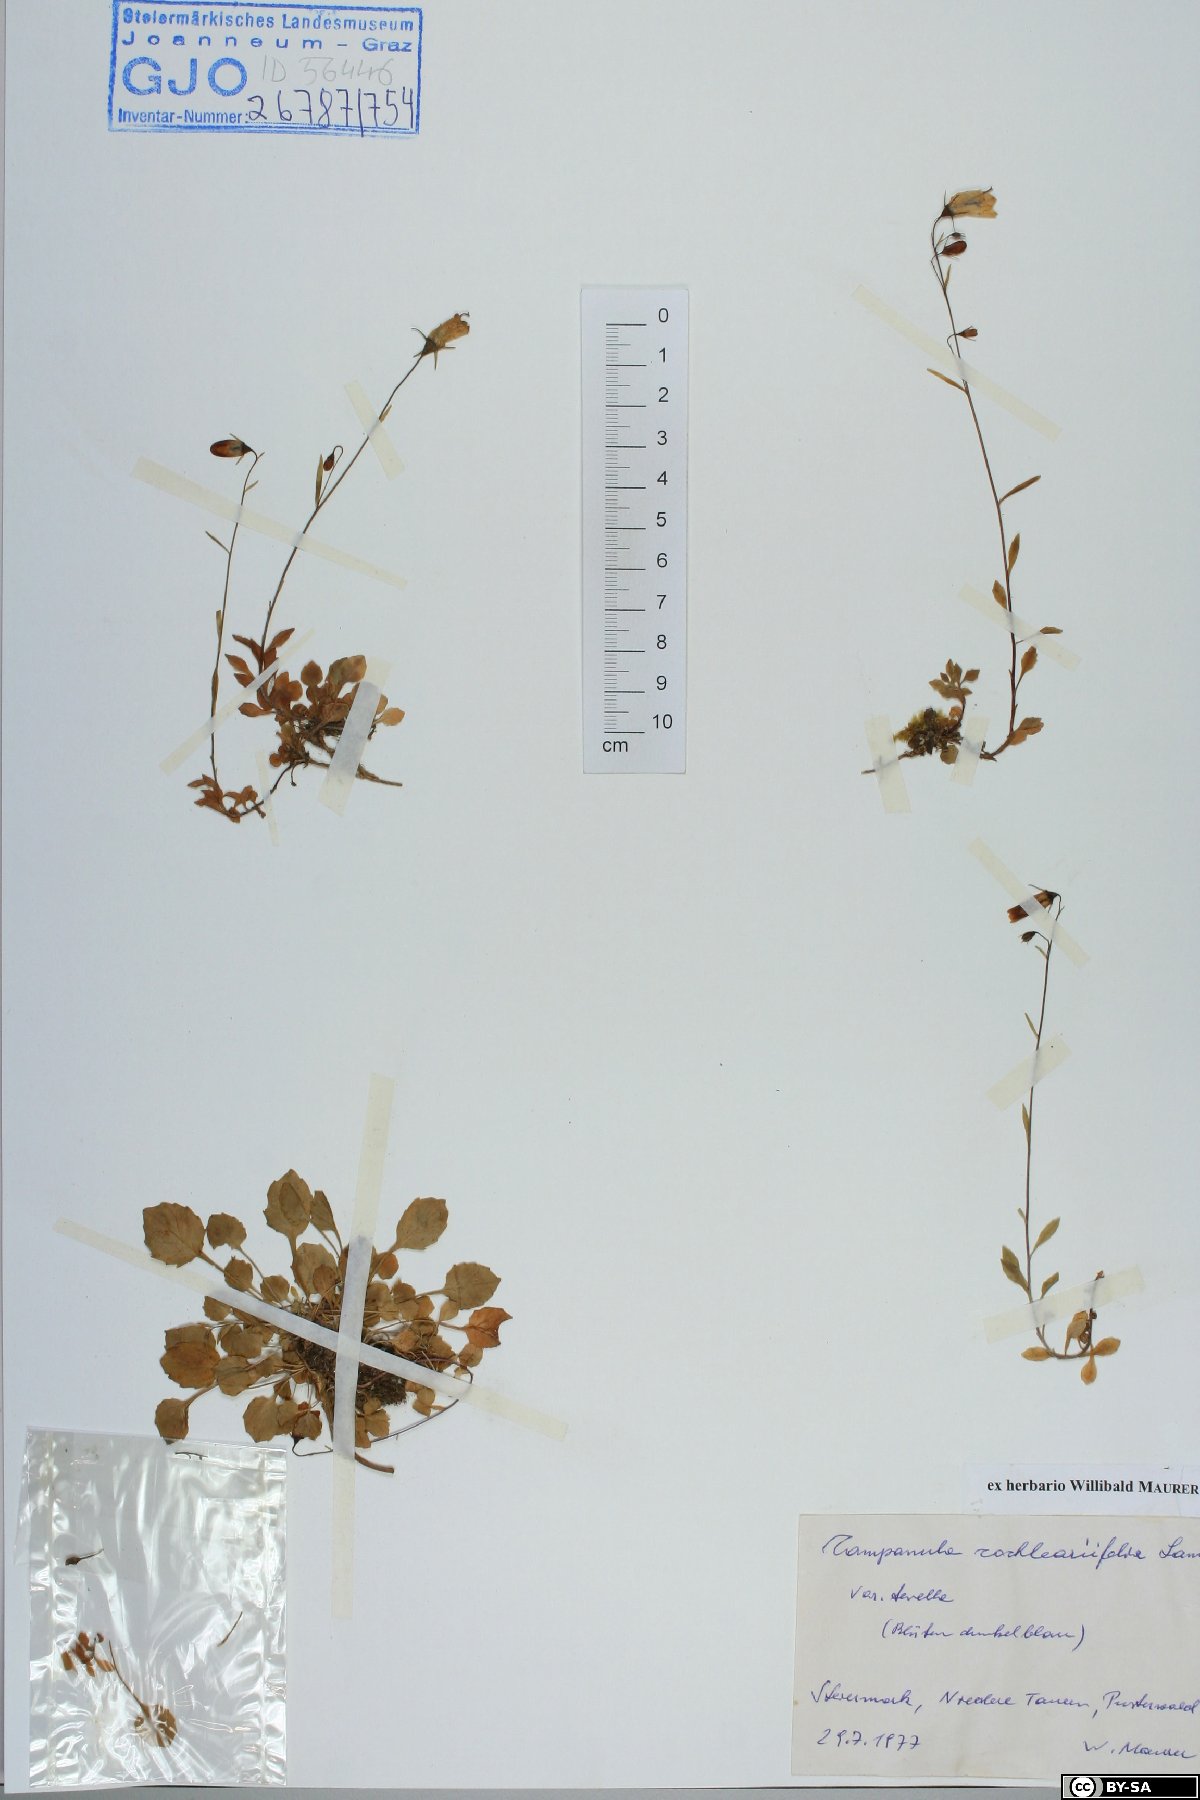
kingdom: Plantae
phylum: Tracheophyta
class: Magnoliopsida
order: Asterales
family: Campanulaceae
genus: Campanula
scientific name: Campanula cochleariifolia
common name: Fairies'-thimbles
